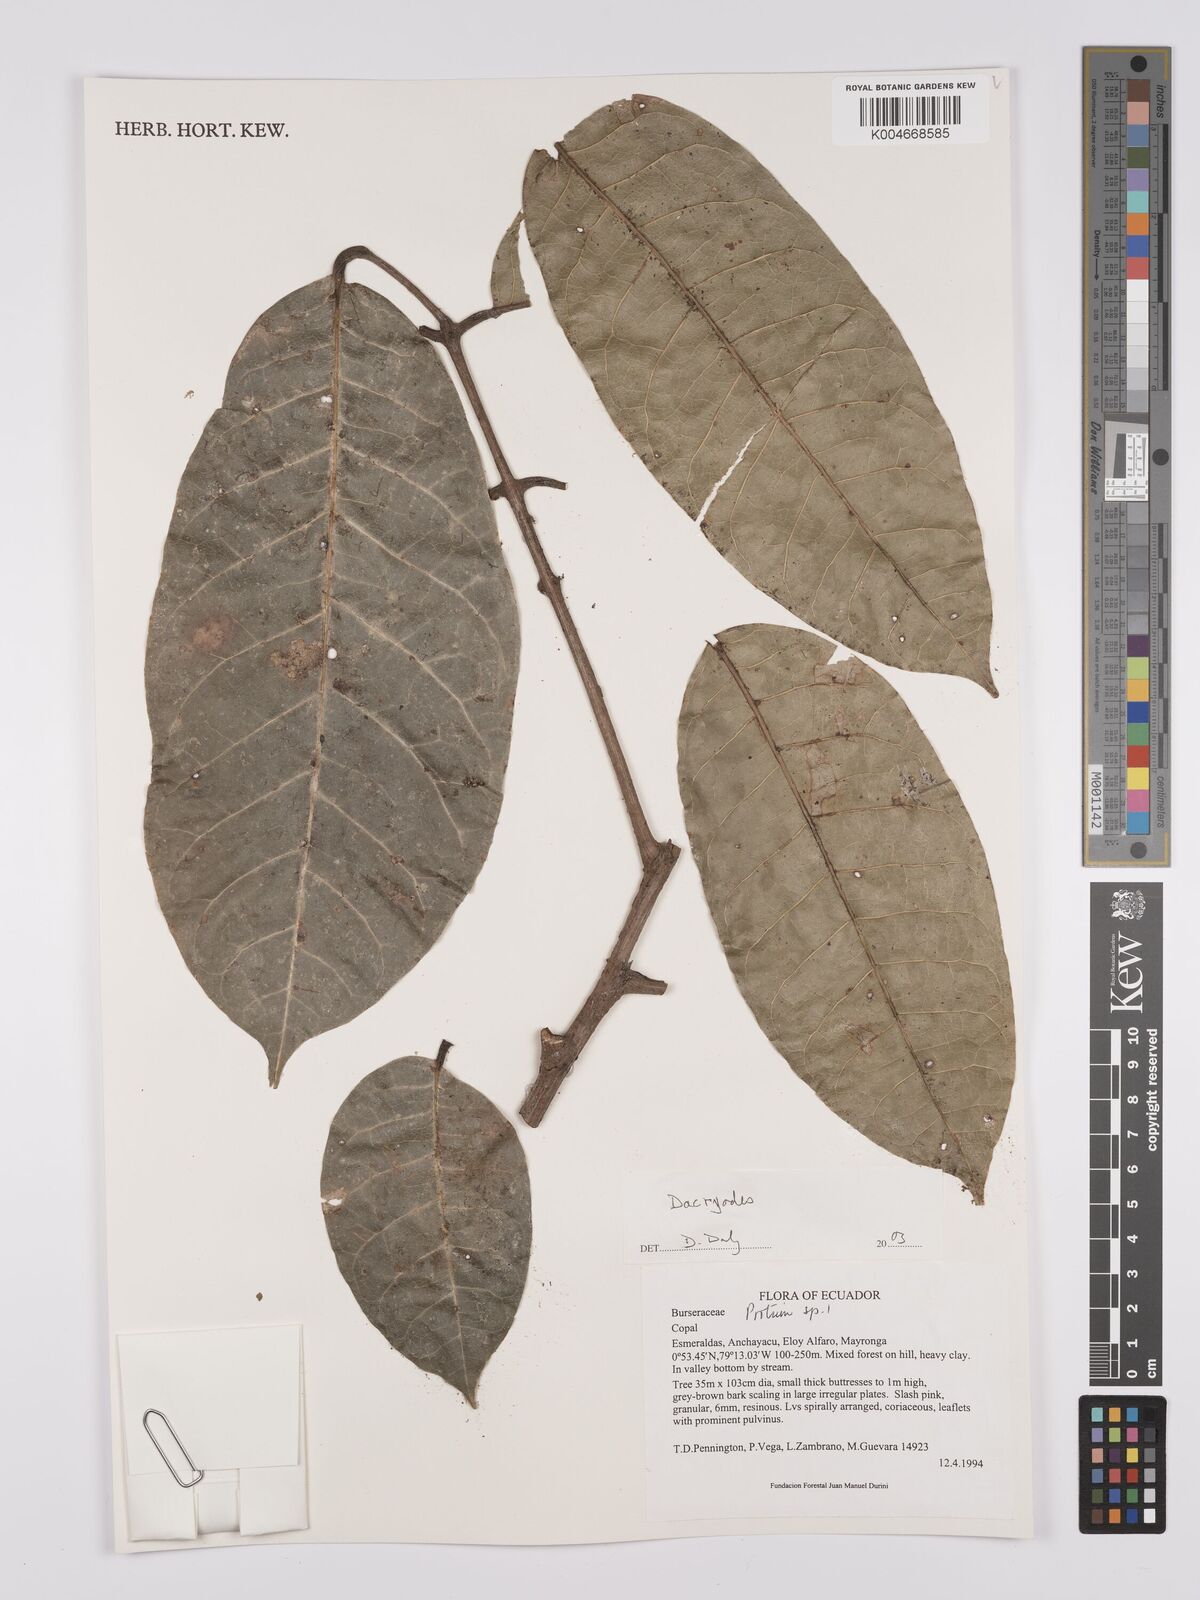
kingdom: Plantae
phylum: Tracheophyta
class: Magnoliopsida
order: Sapindales
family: Burseraceae
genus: Dacryodes
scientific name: Dacryodes
